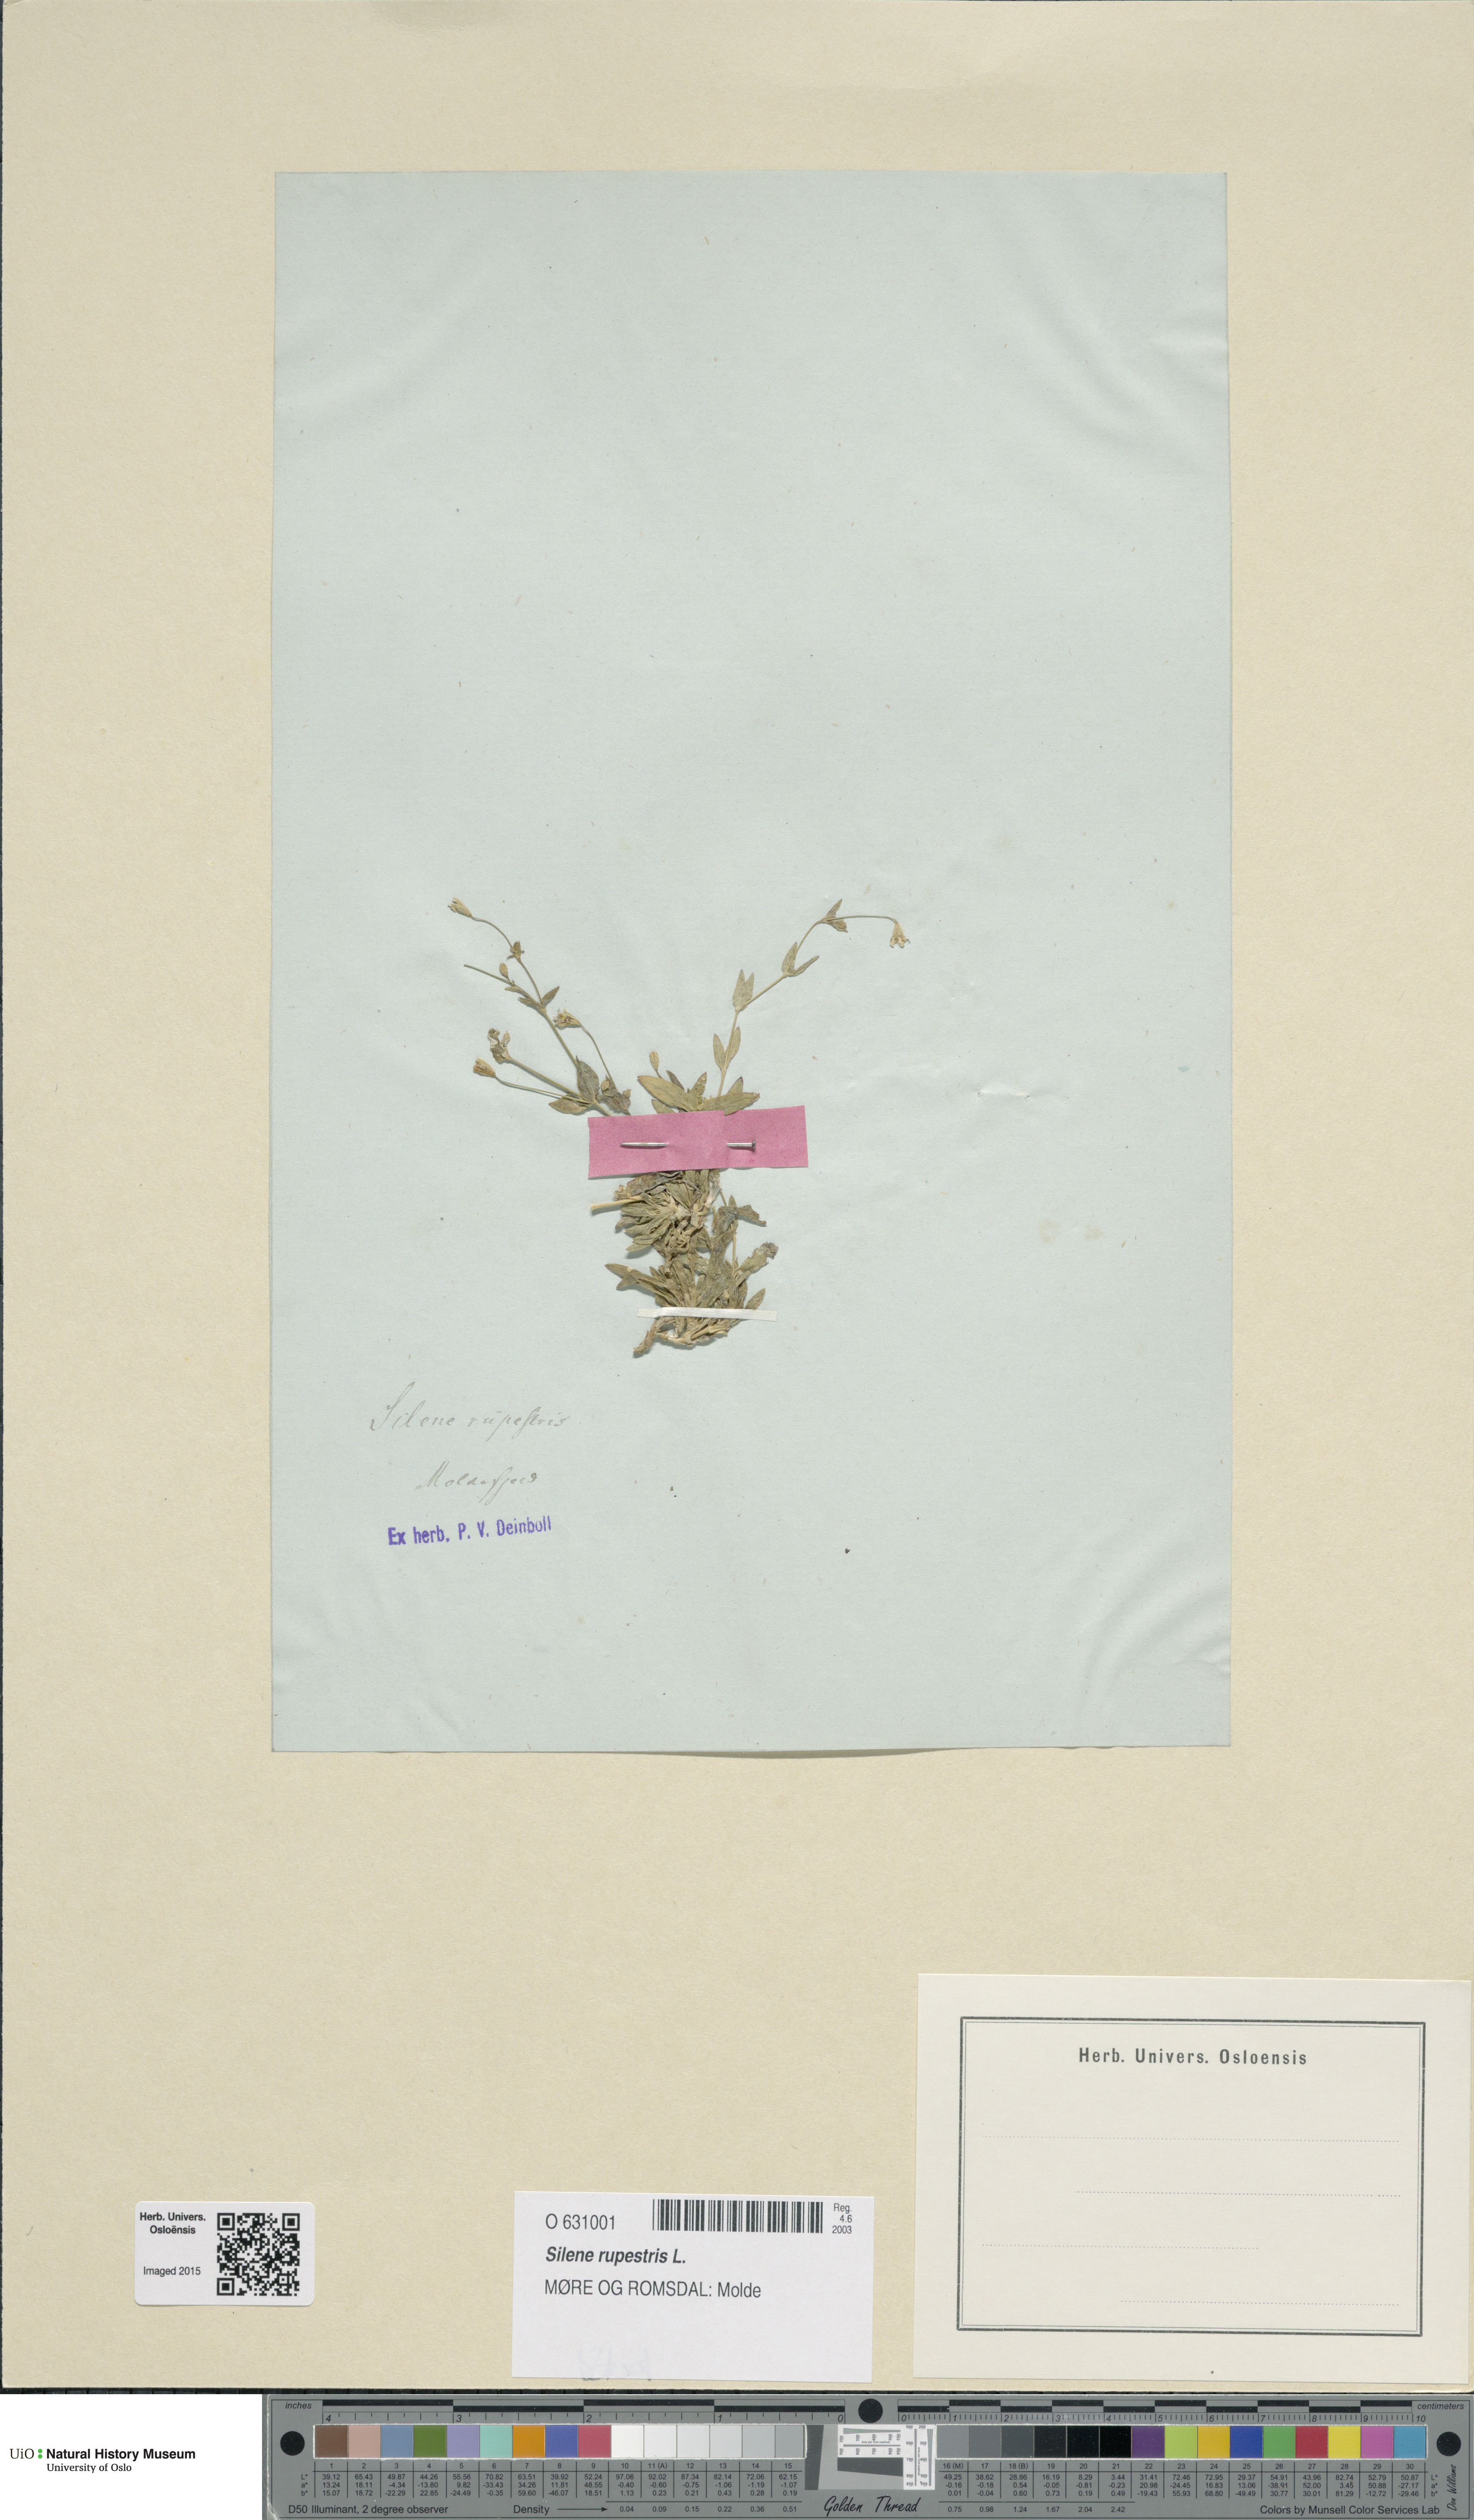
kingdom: Plantae
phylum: Tracheophyta
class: Magnoliopsida
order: Caryophyllales
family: Caryophyllaceae
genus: Atocion
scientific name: Atocion rupestre
